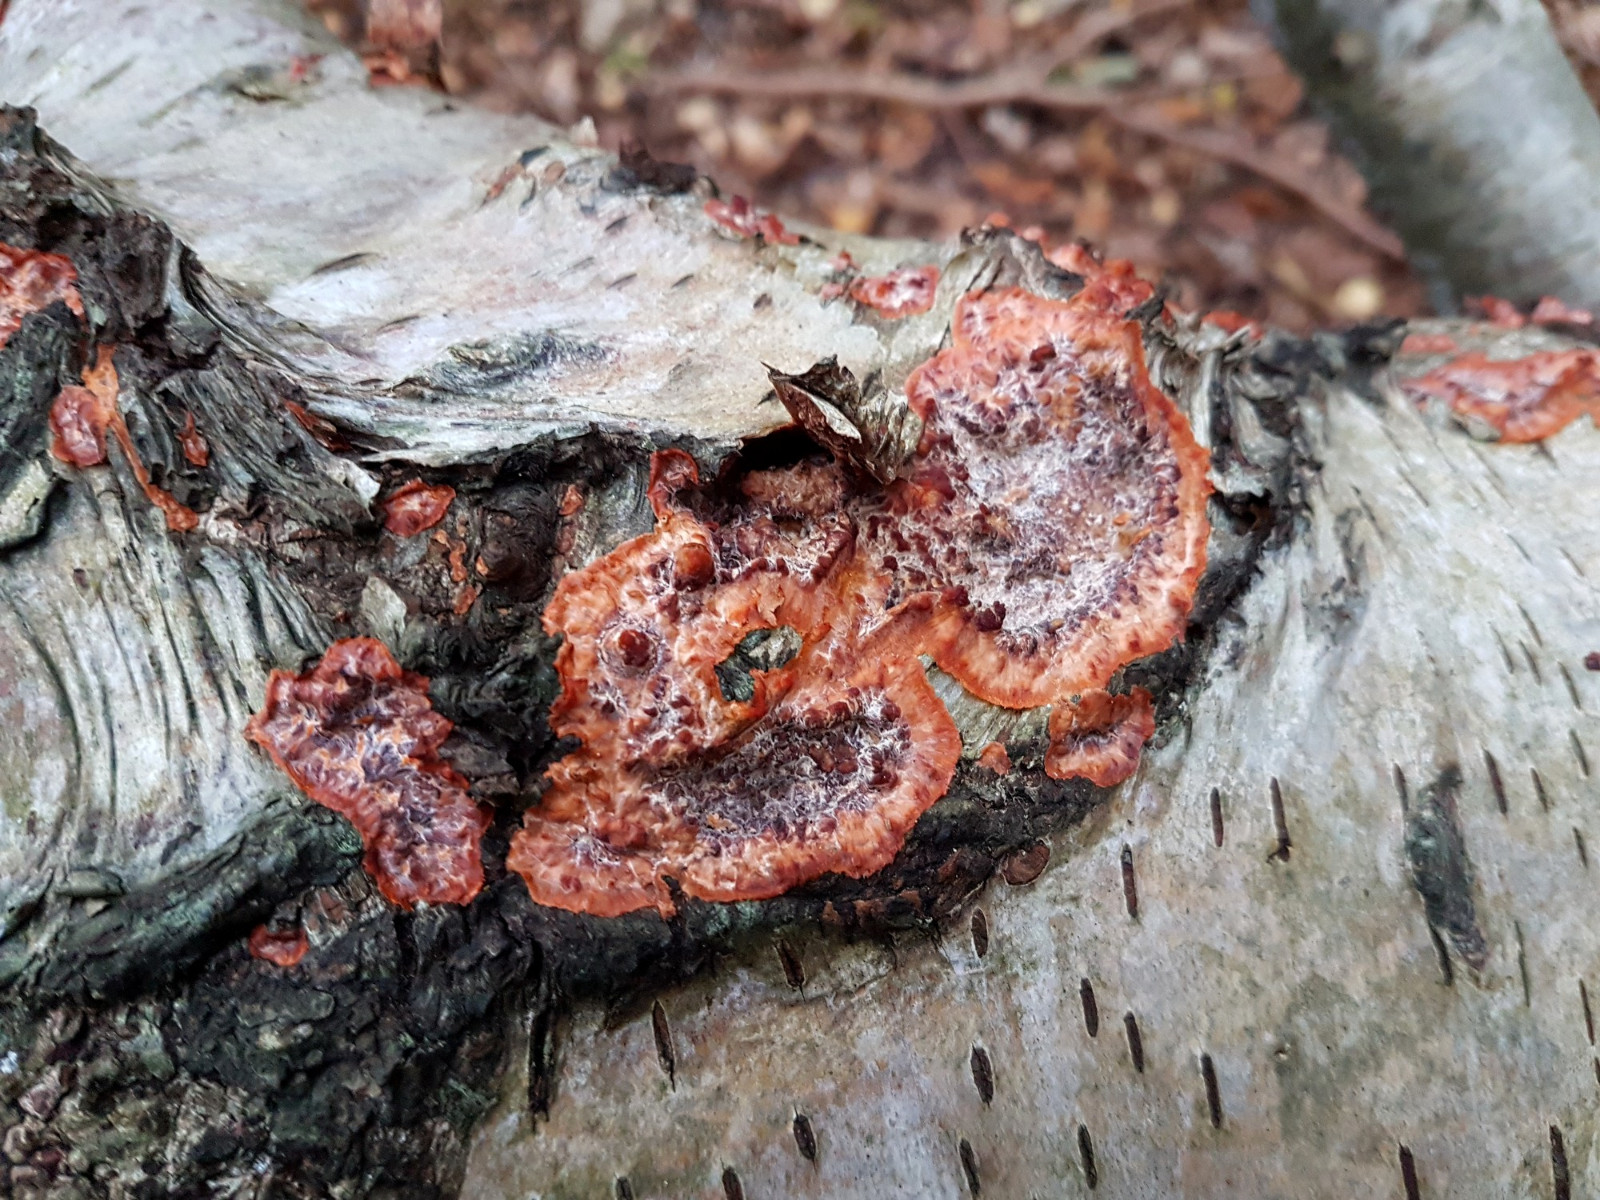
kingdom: Fungi
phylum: Basidiomycota
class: Agaricomycetes
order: Polyporales
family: Meruliaceae
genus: Phlebia
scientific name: Phlebia radiata
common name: stråle-åresvamp
